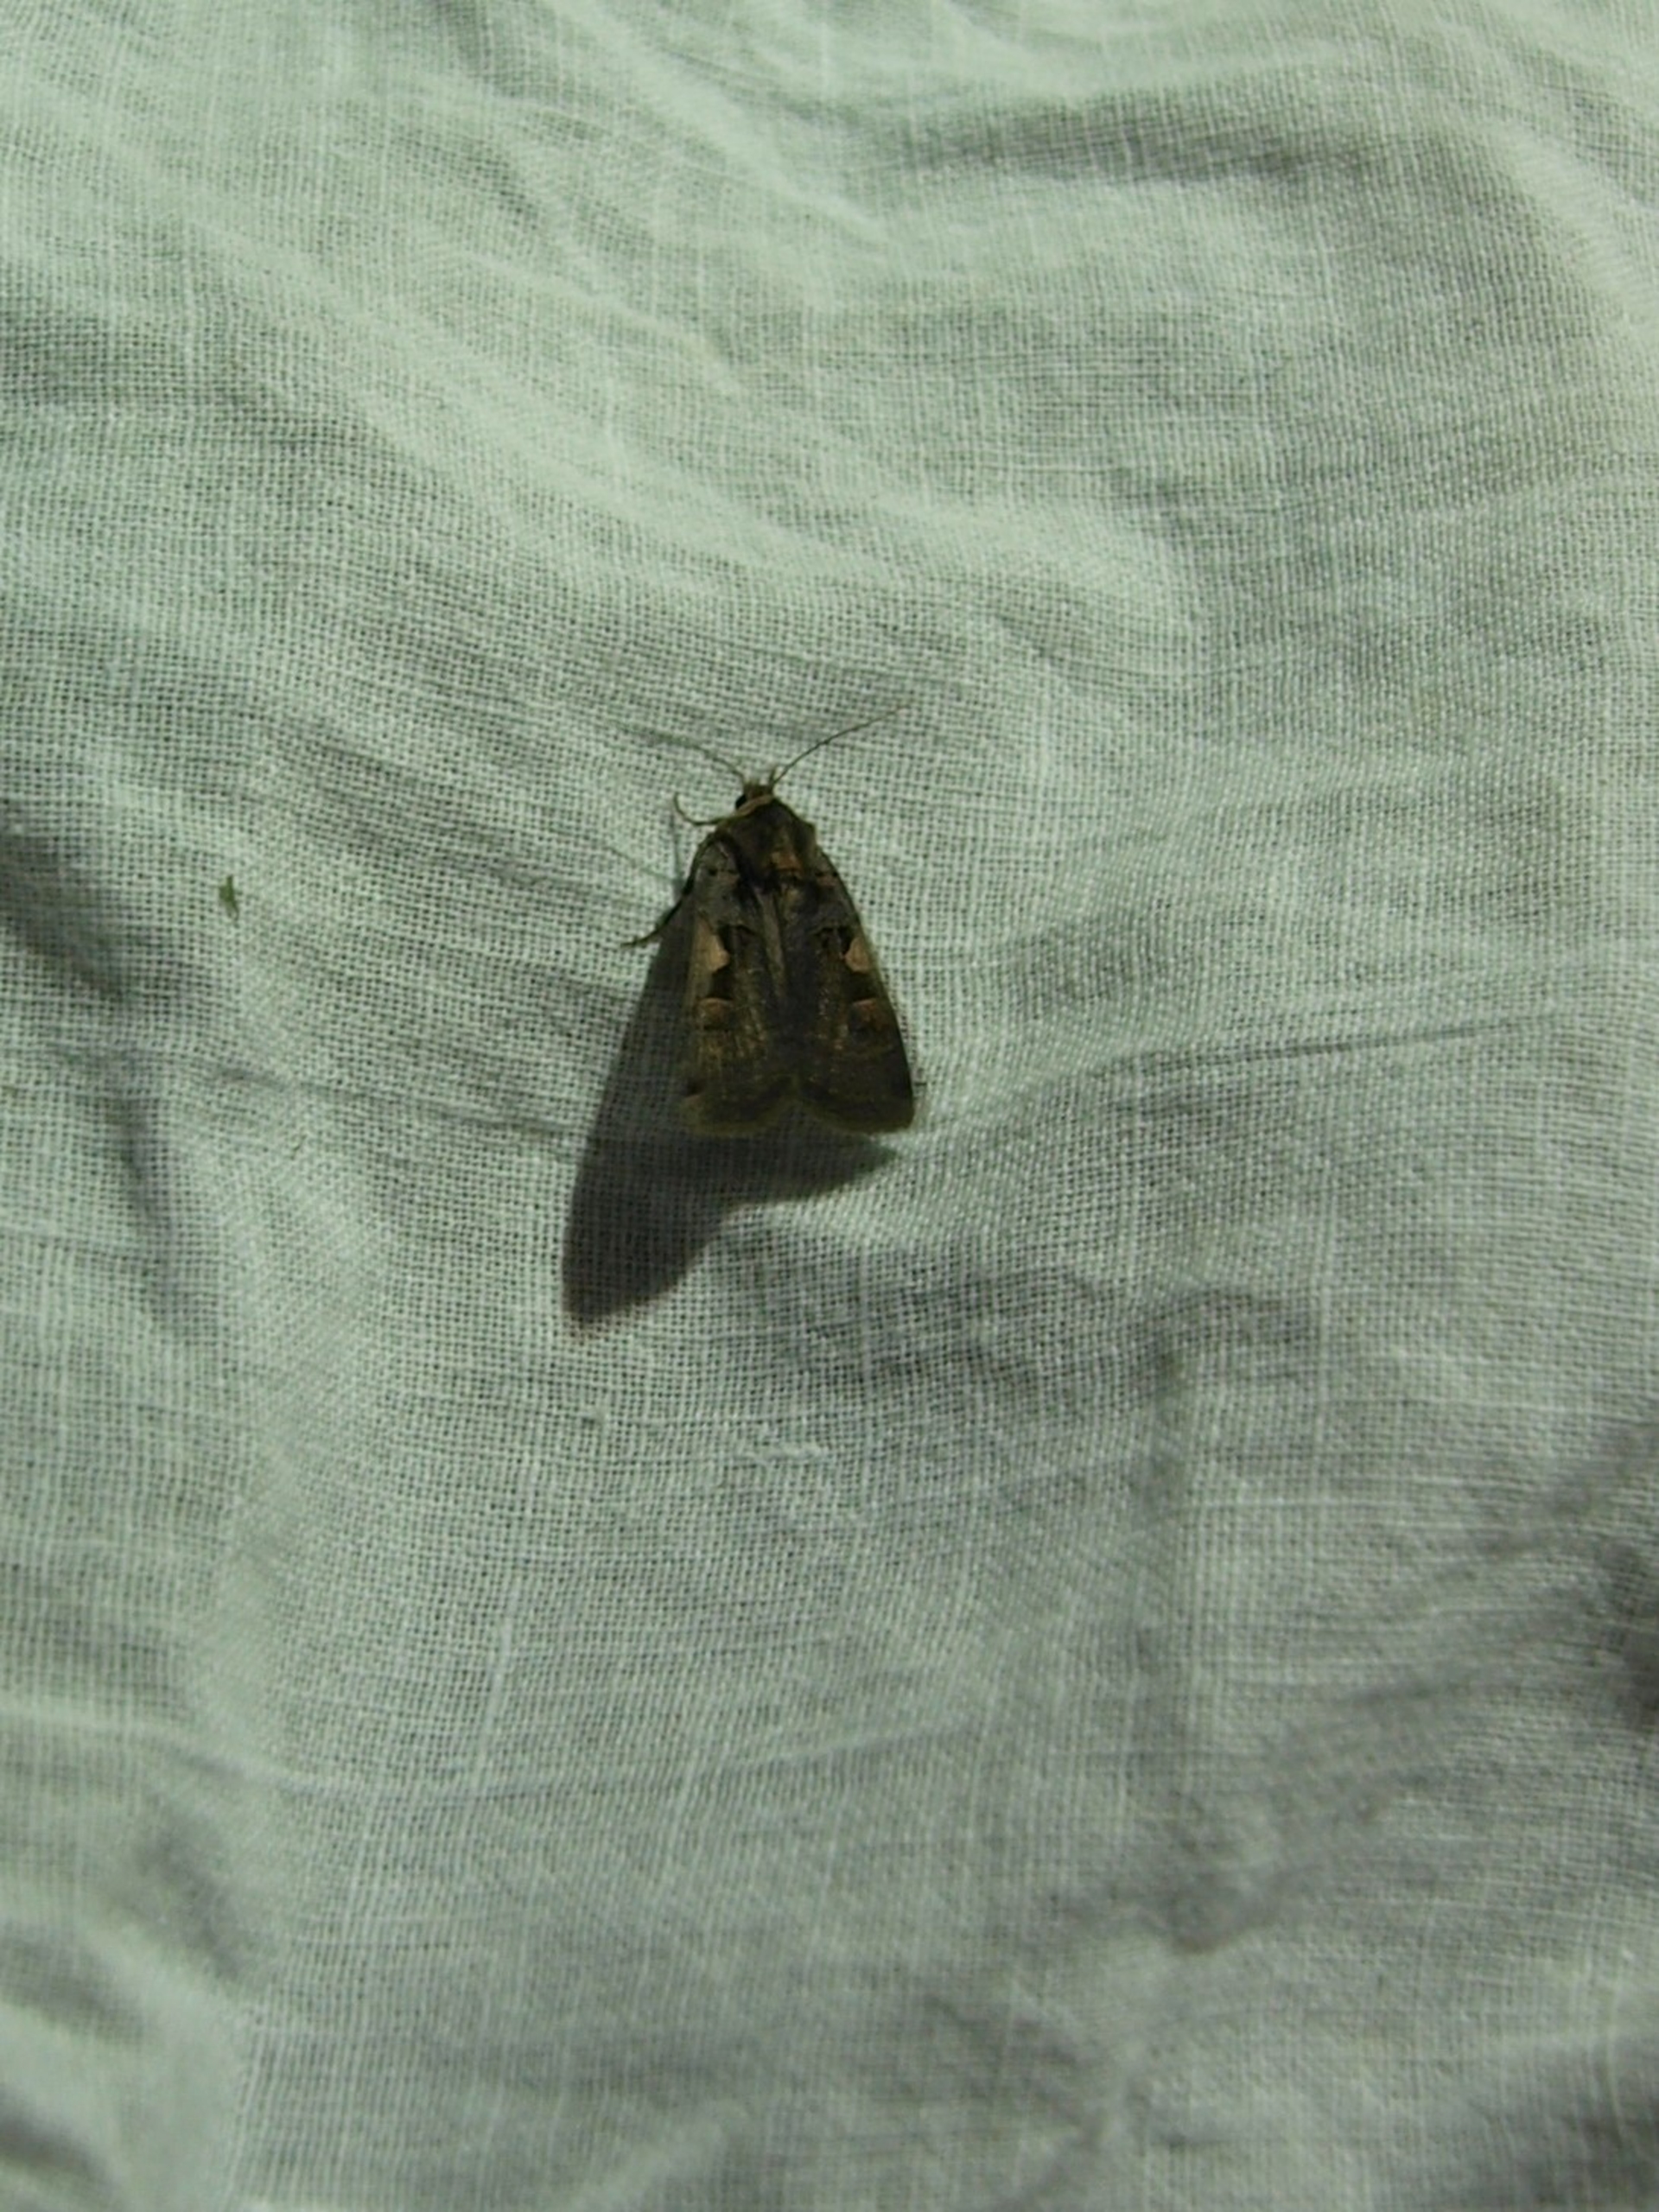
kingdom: Animalia
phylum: Arthropoda
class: Insecta
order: Lepidoptera
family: Noctuidae
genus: Xestia
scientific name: Xestia c-nigrum
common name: Det sorte c
